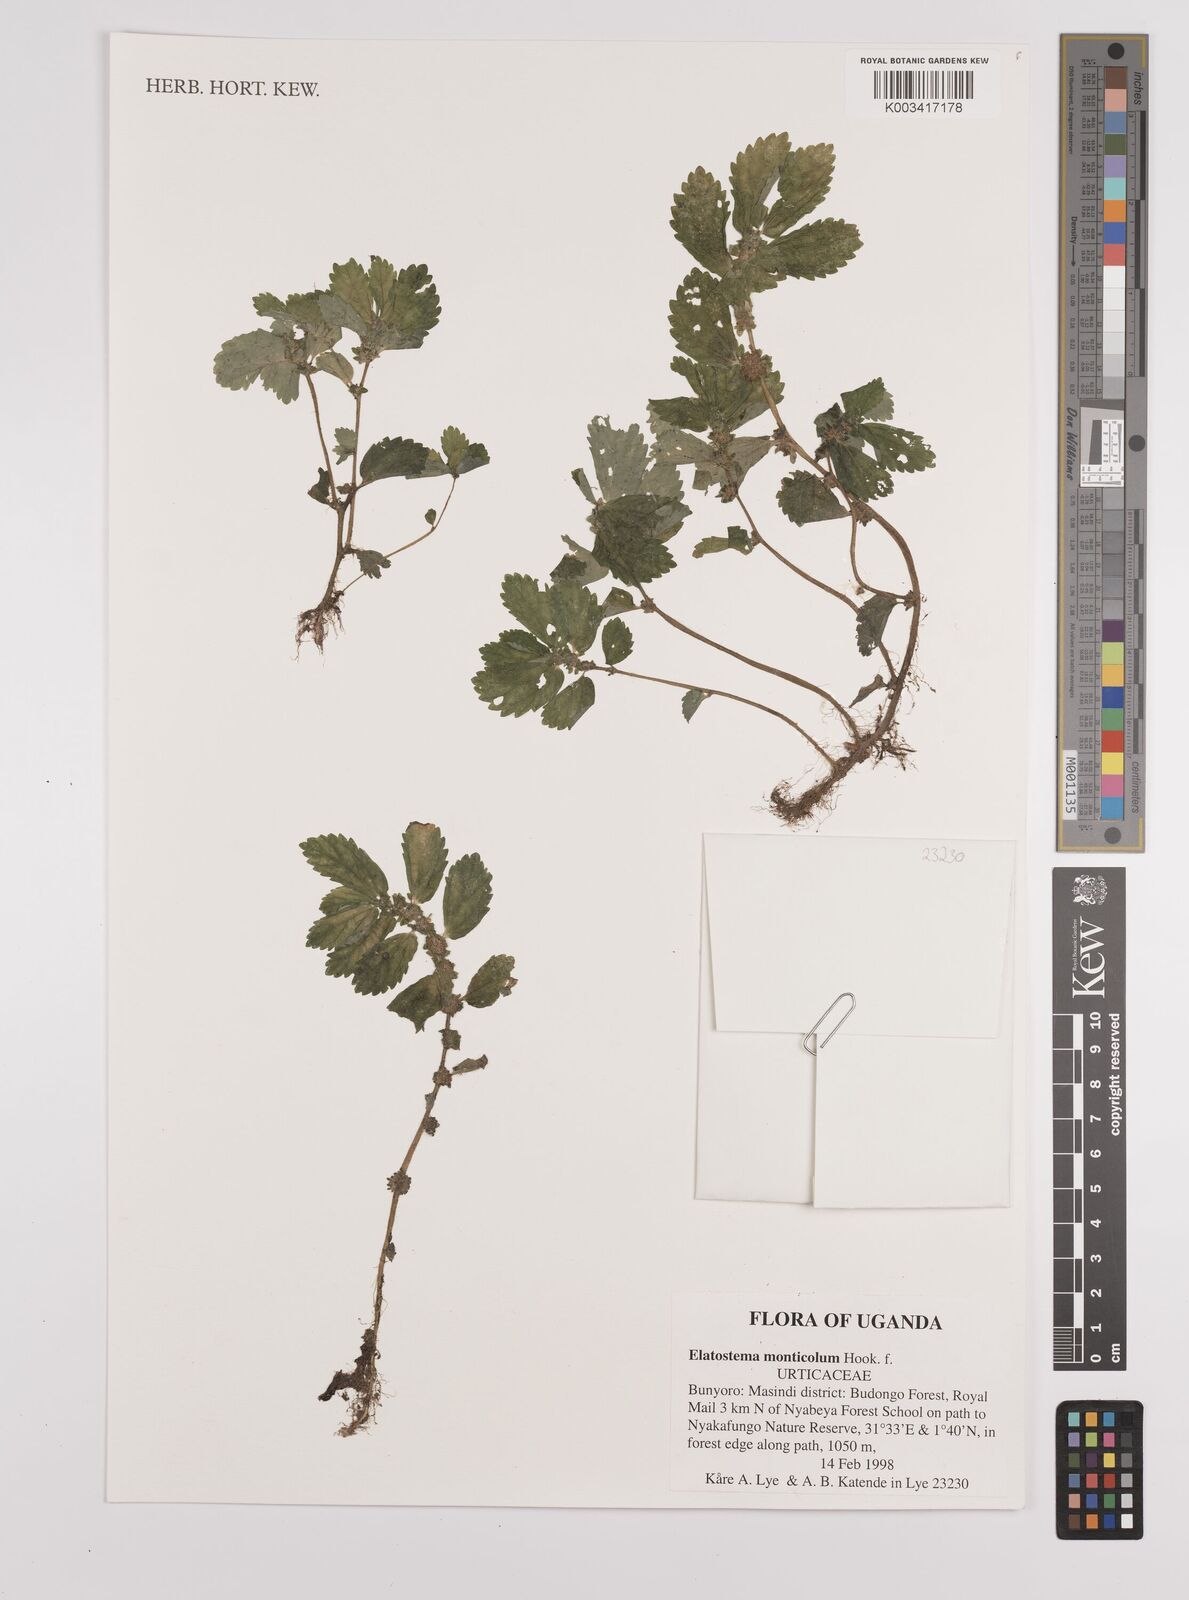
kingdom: Plantae
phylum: Tracheophyta
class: Magnoliopsida
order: Rosales
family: Urticaceae
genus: Elatostema
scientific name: Elatostema monticola
